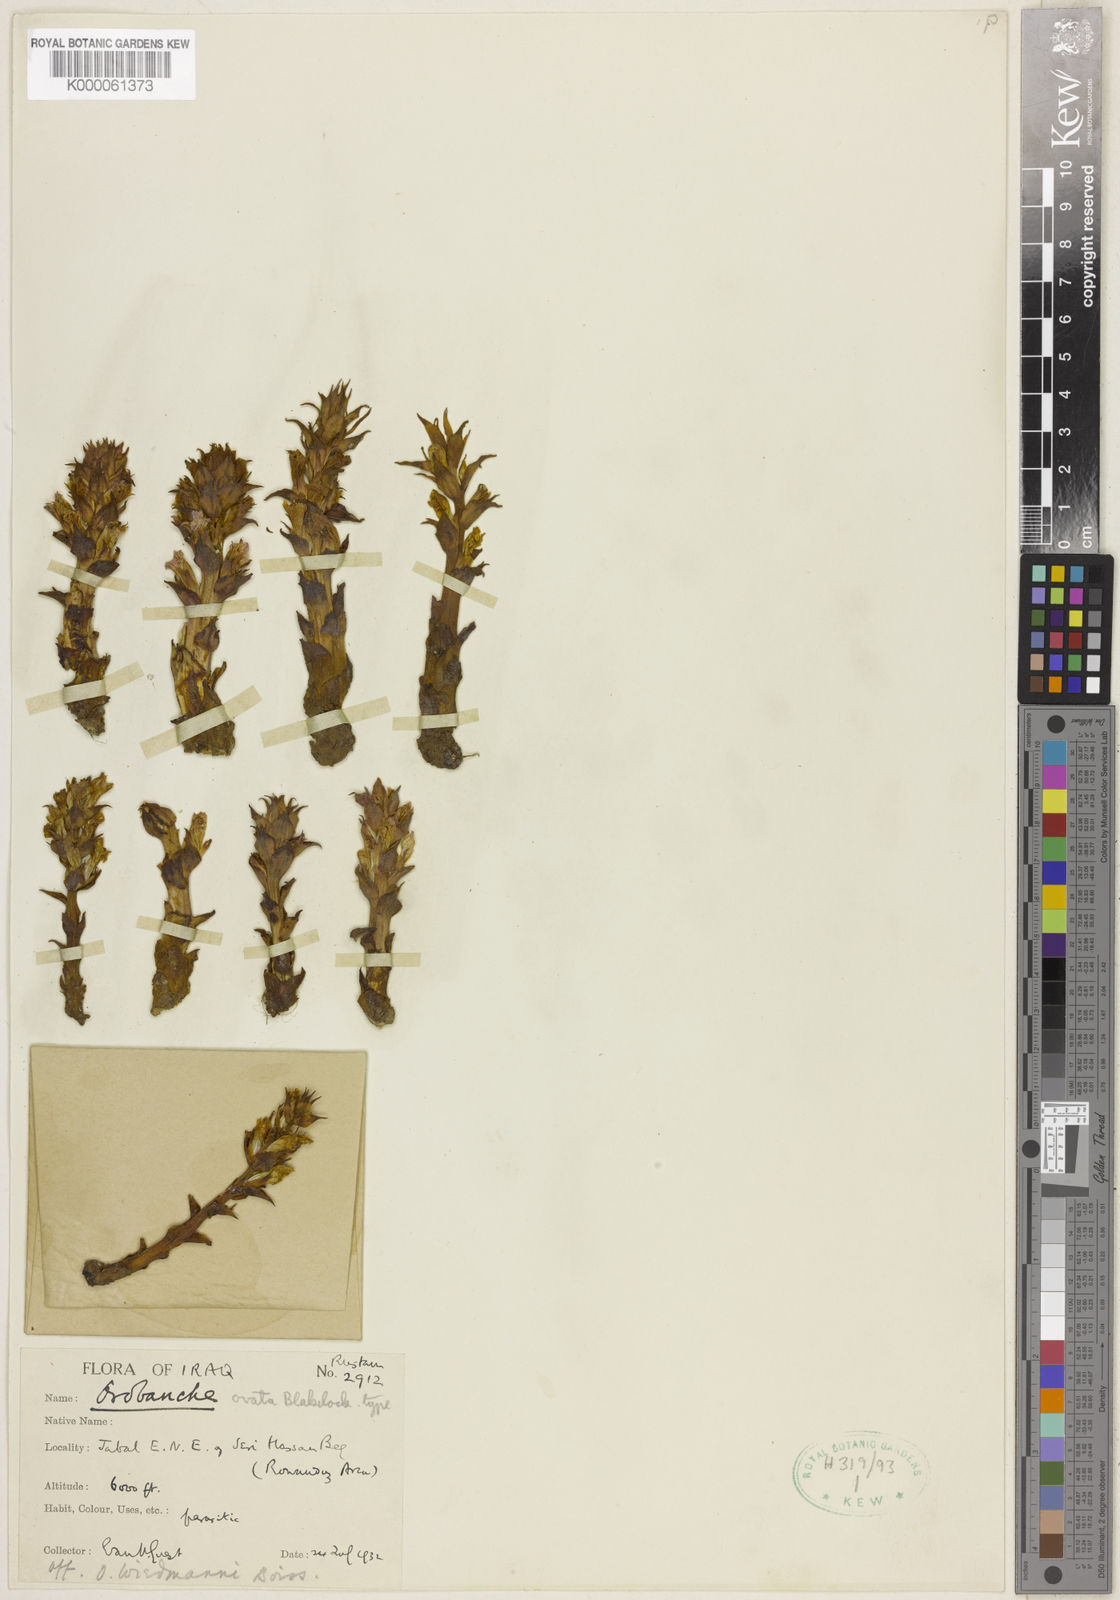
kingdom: Plantae
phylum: Tracheophyta
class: Magnoliopsida
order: Lamiales
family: Orobanchaceae
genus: Orobanche
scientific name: Orobanche camptolepis
